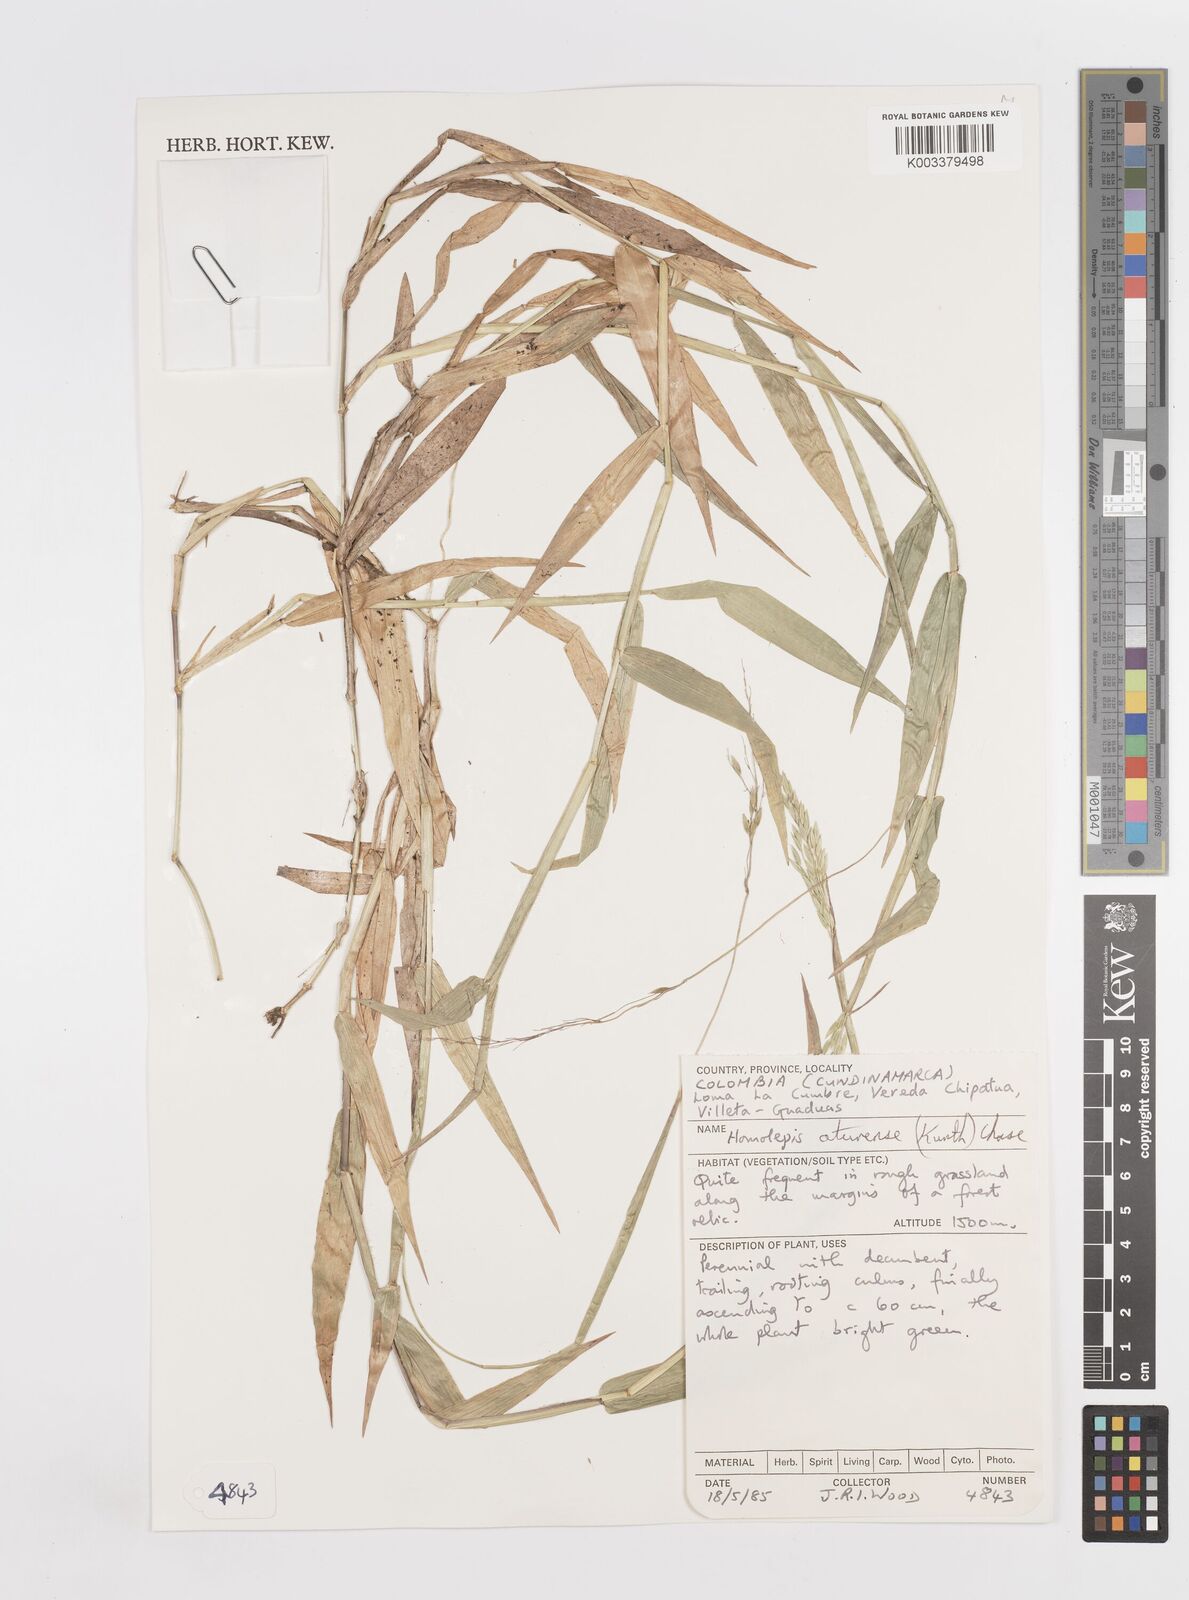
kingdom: Plantae
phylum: Tracheophyta
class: Liliopsida
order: Poales
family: Poaceae
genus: Homolepis
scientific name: Homolepis aturensis
